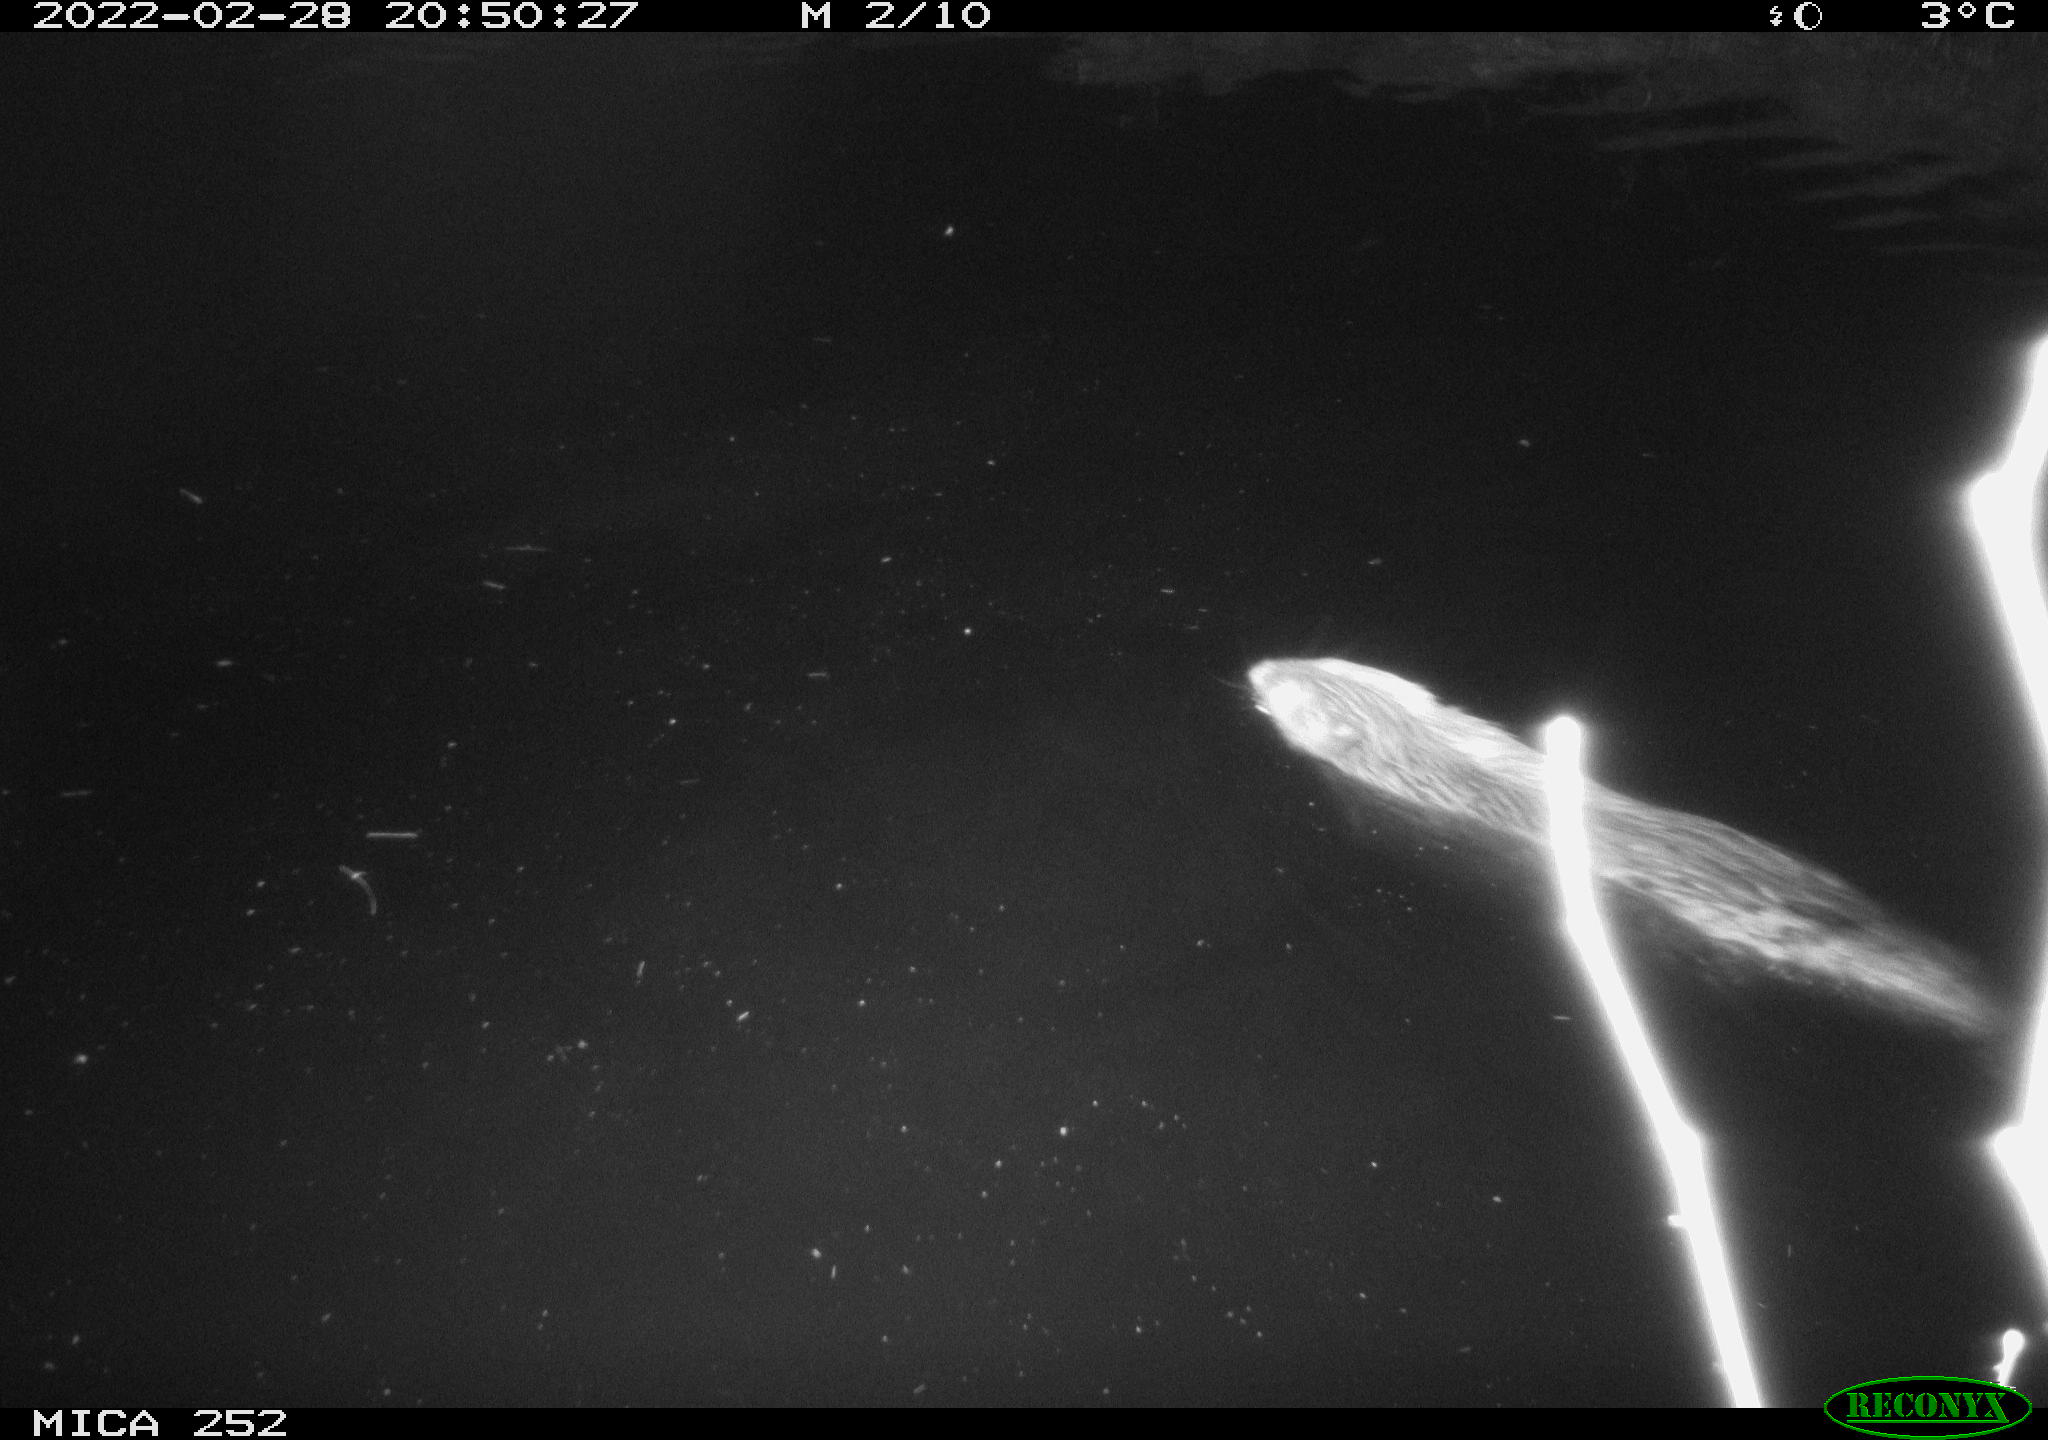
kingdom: Animalia
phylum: Chordata
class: Mammalia
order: Rodentia
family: Castoridae
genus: Castor
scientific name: Castor fiber
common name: Eurasian beaver
